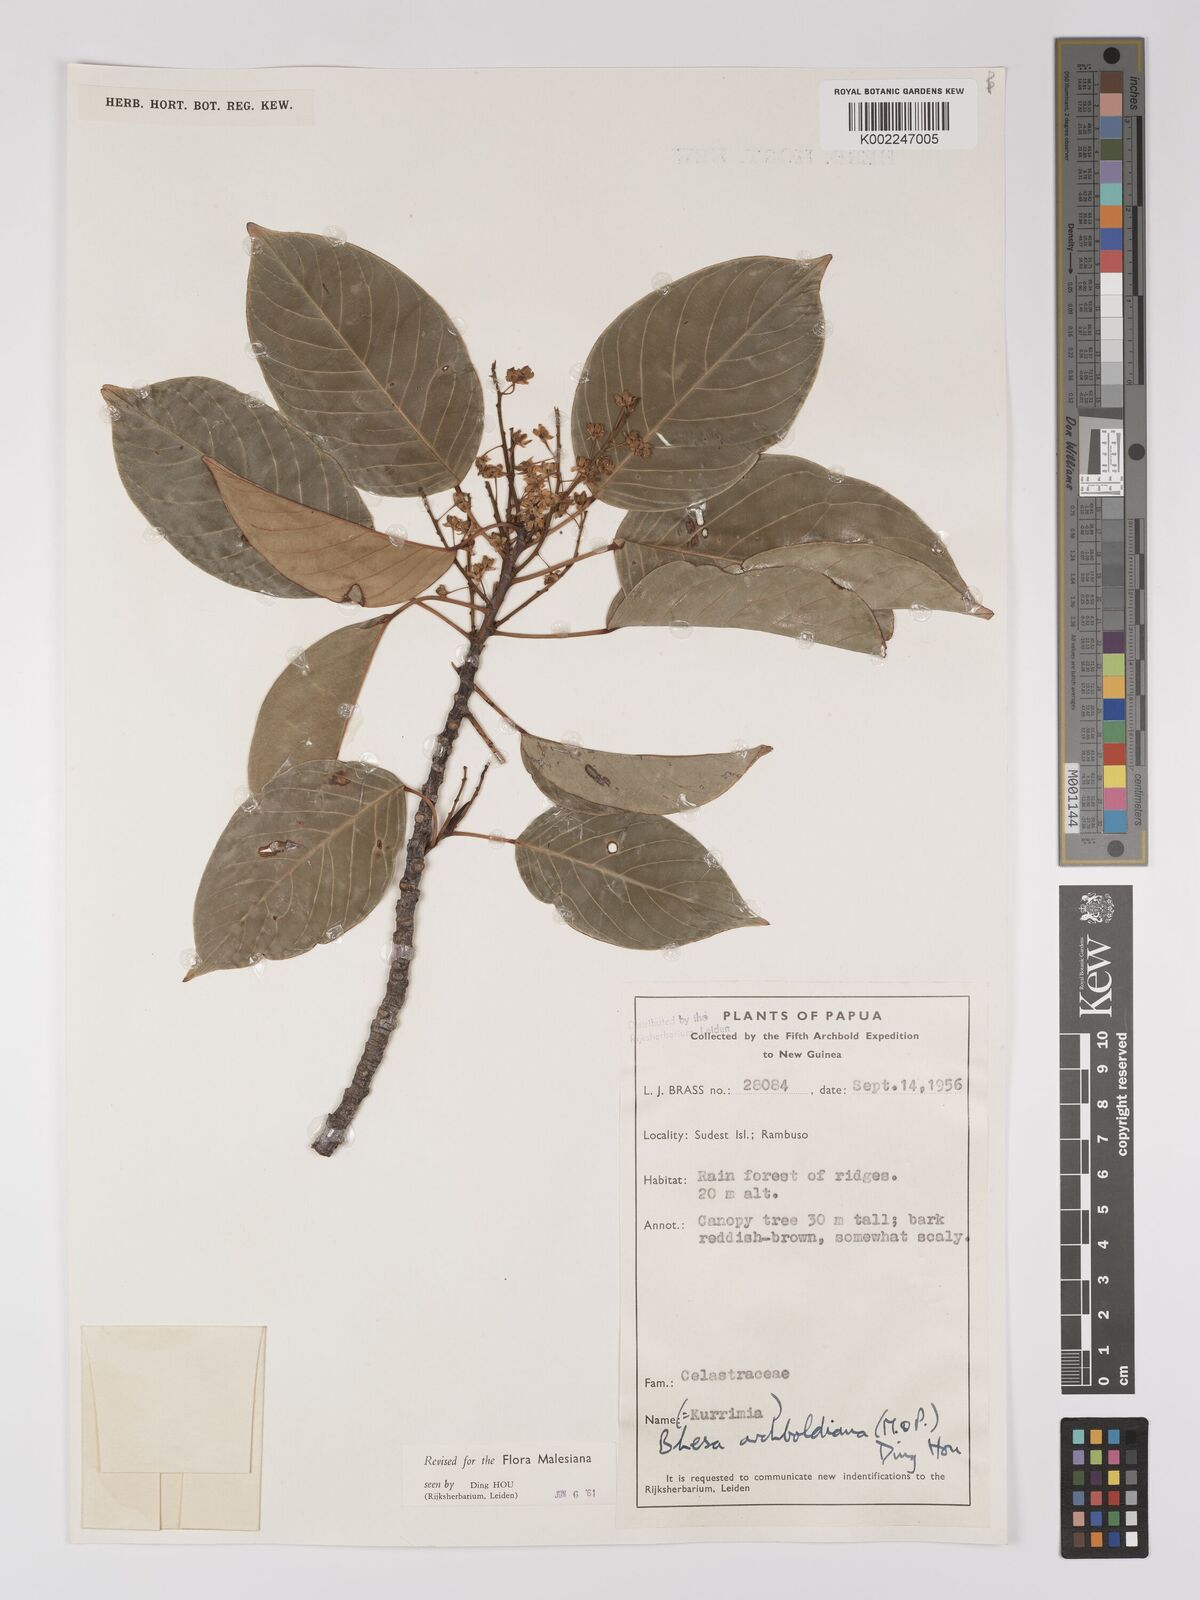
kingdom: Plantae
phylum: Tracheophyta
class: Magnoliopsida
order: Malpighiales
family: Centroplacaceae
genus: Bhesa
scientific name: Bhesa archboldiana
